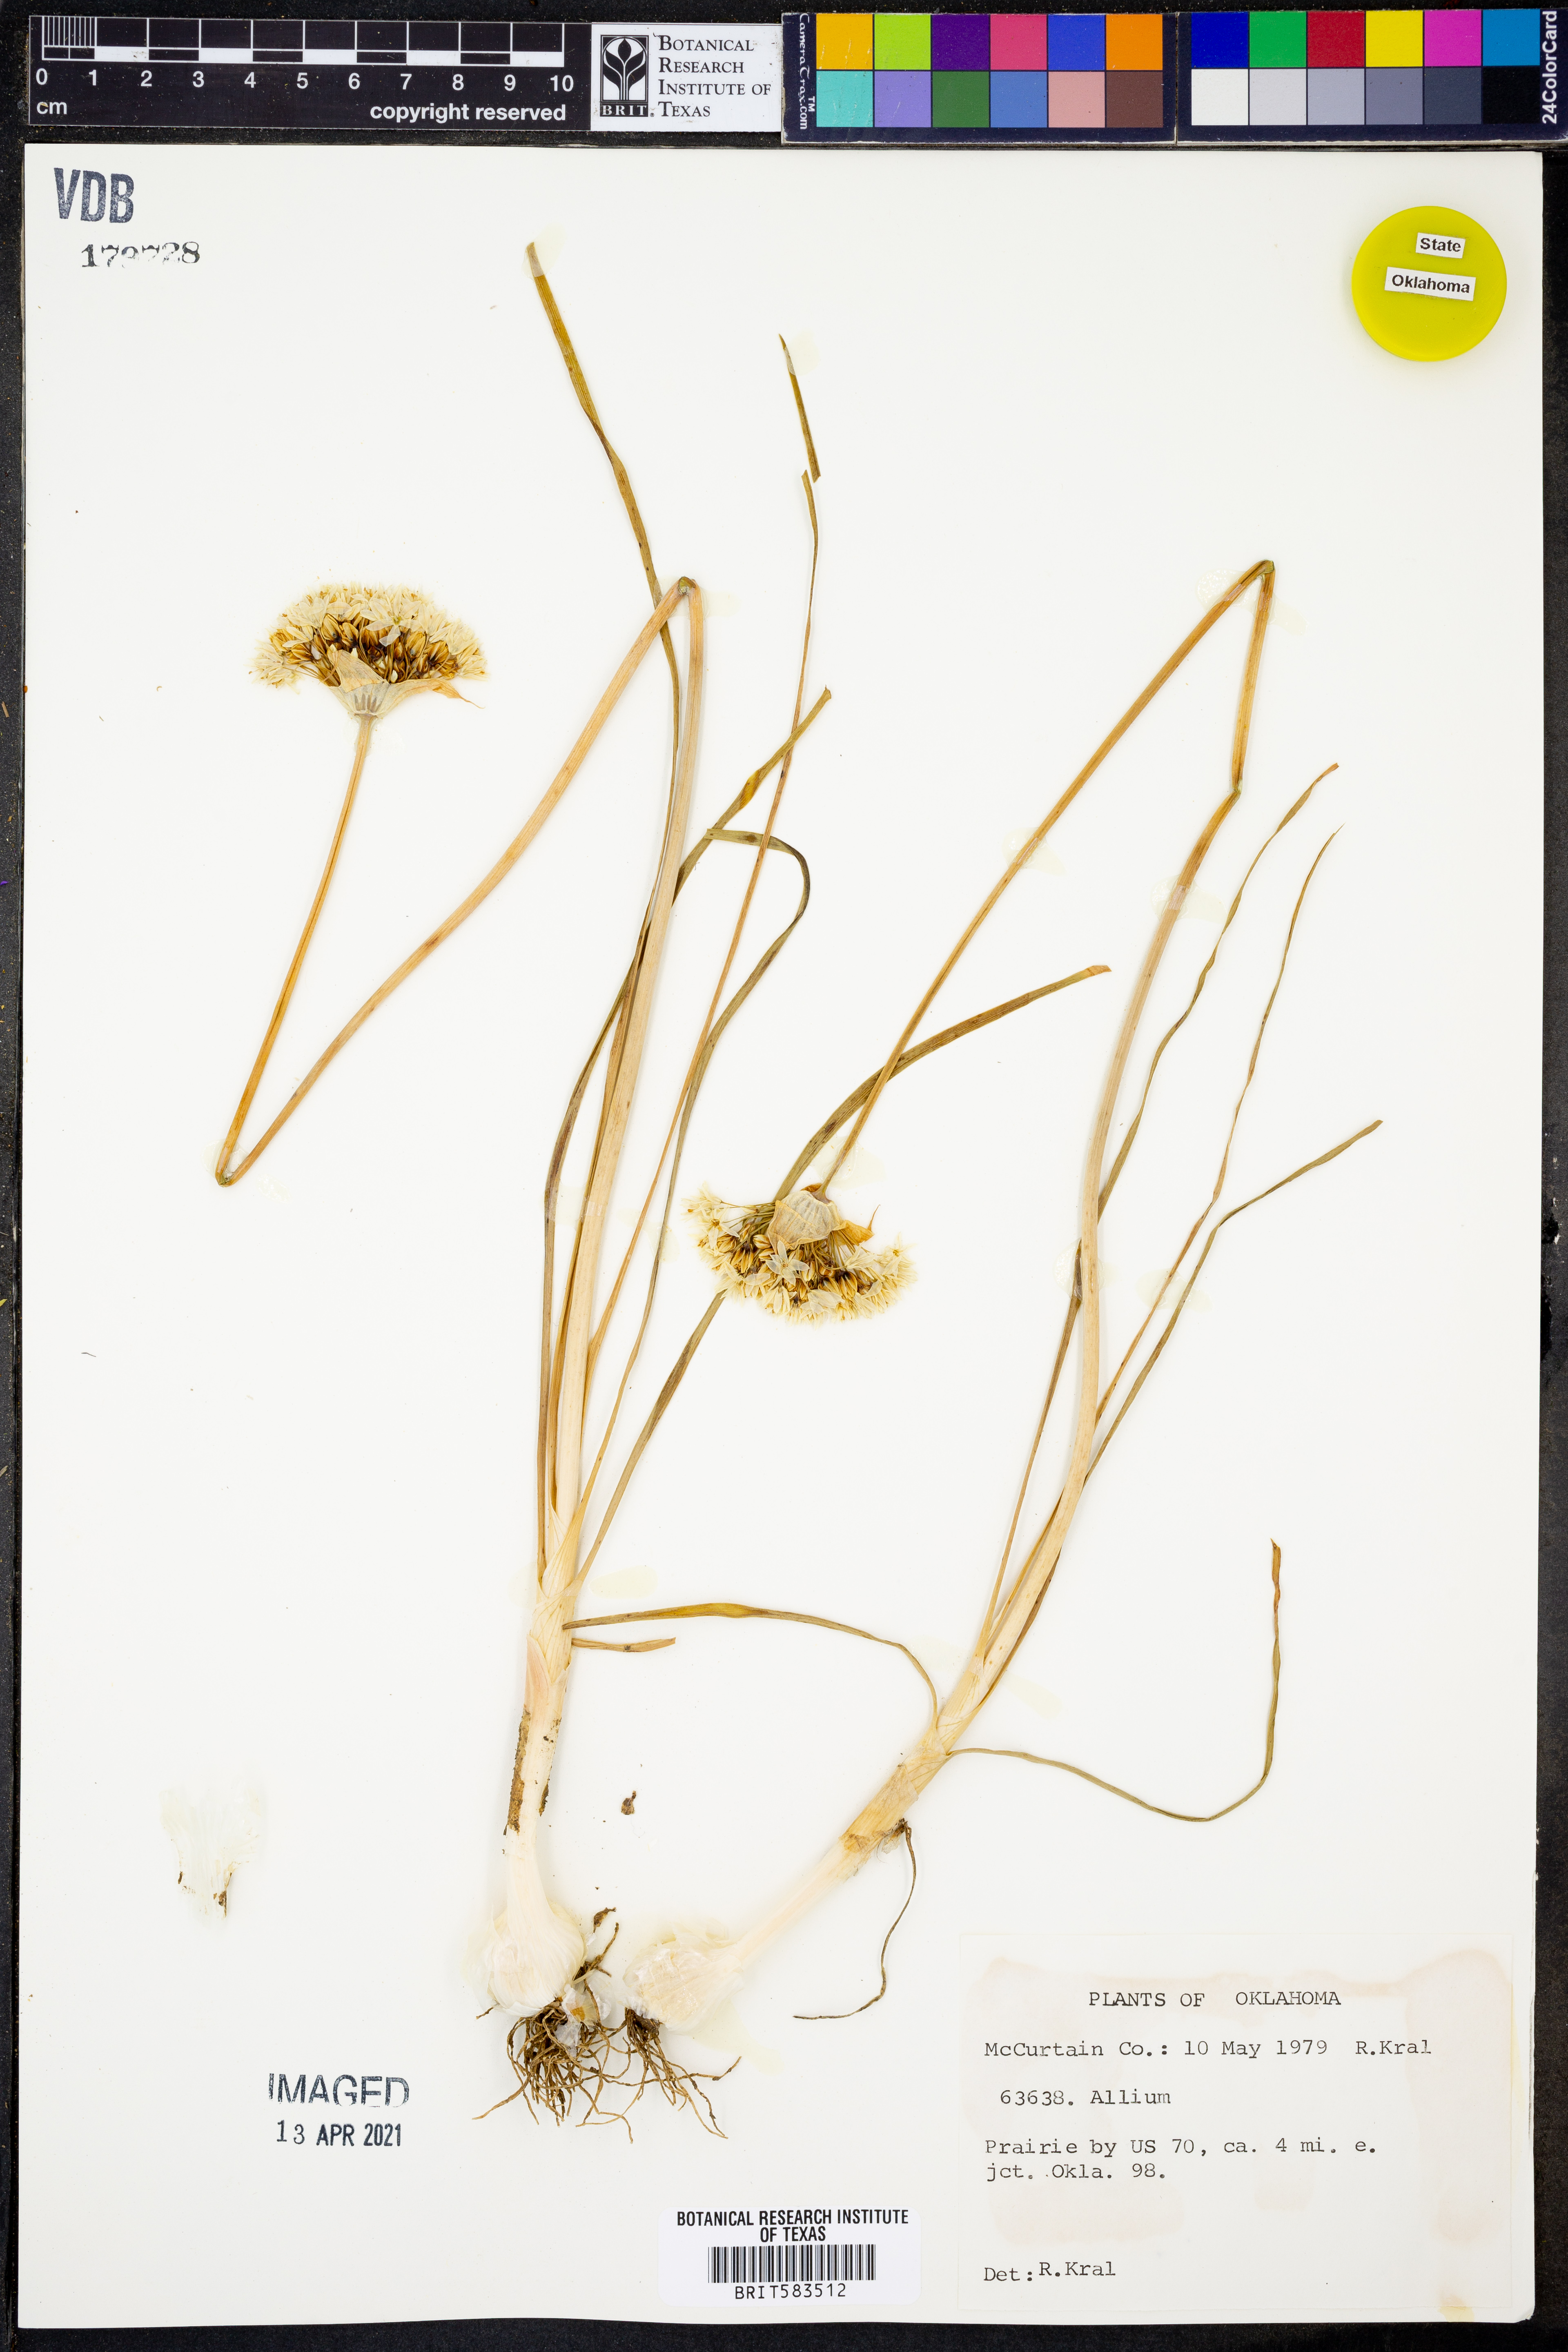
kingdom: Plantae
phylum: Tracheophyta
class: Liliopsida
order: Asparagales
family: Amaryllidaceae
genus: Allium
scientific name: Allium
